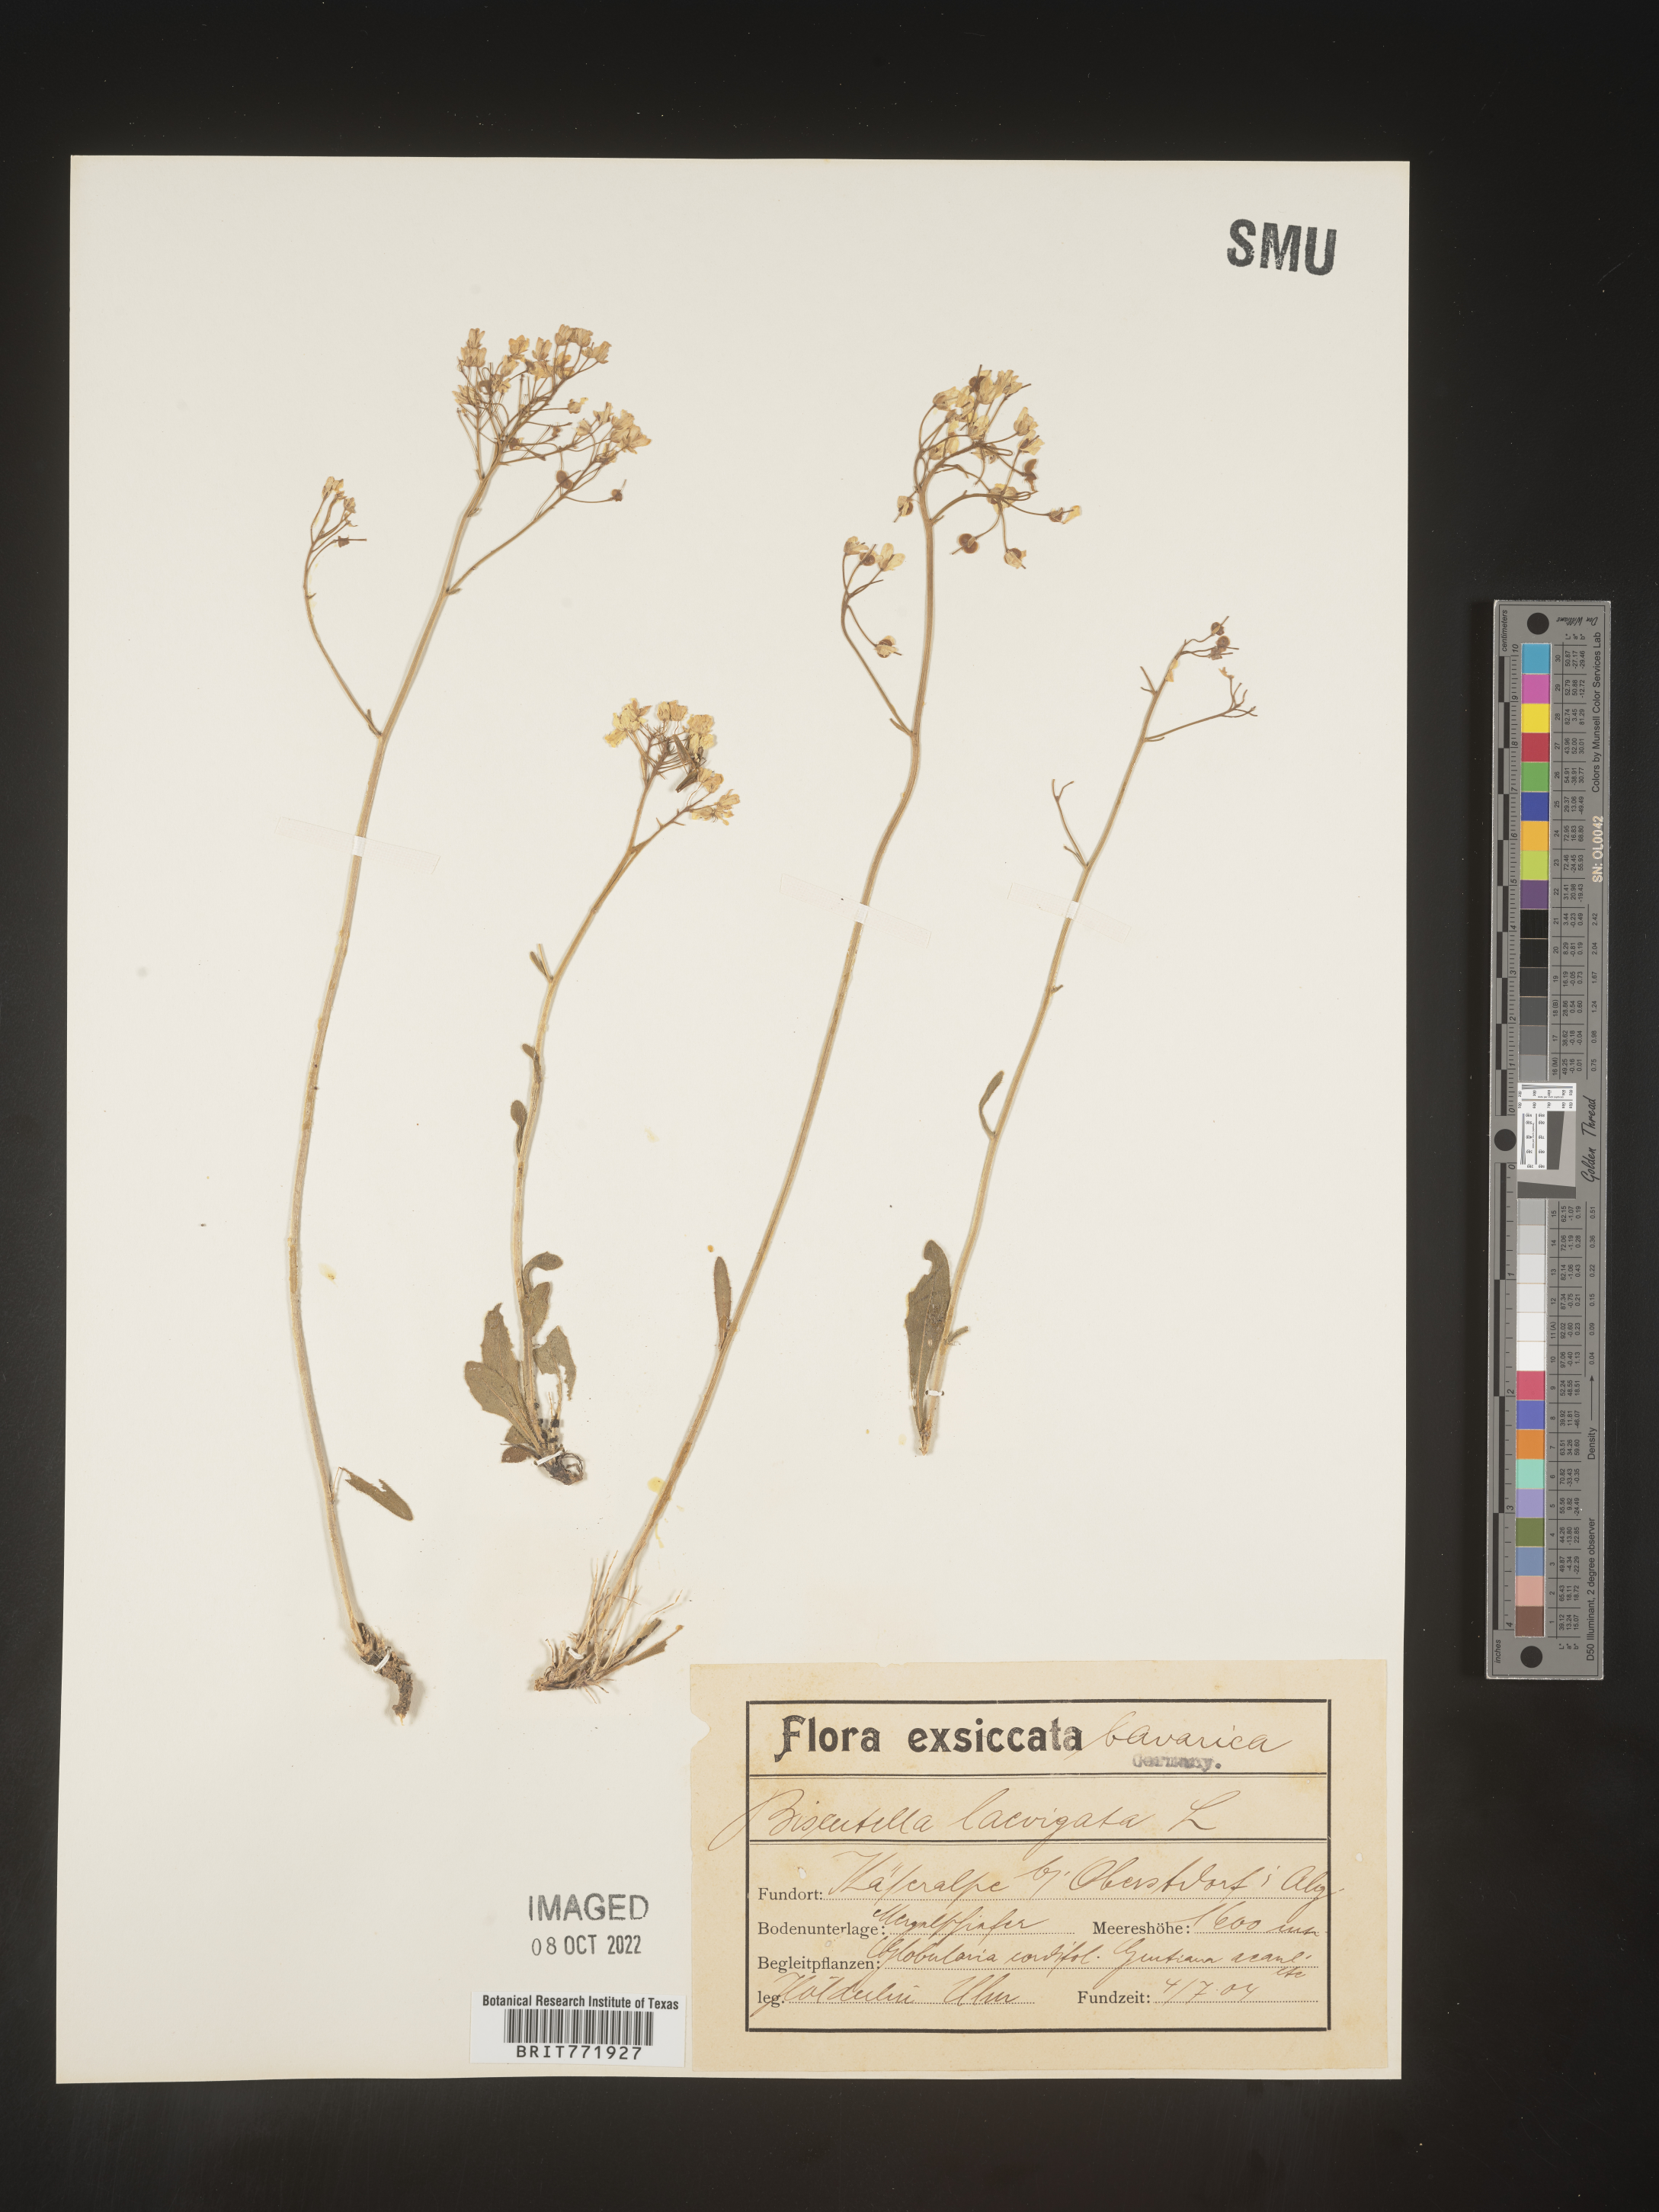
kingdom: Plantae
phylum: Tracheophyta
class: Magnoliopsida
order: Brassicales
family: Brassicaceae
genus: Biscutella
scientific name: Biscutella
